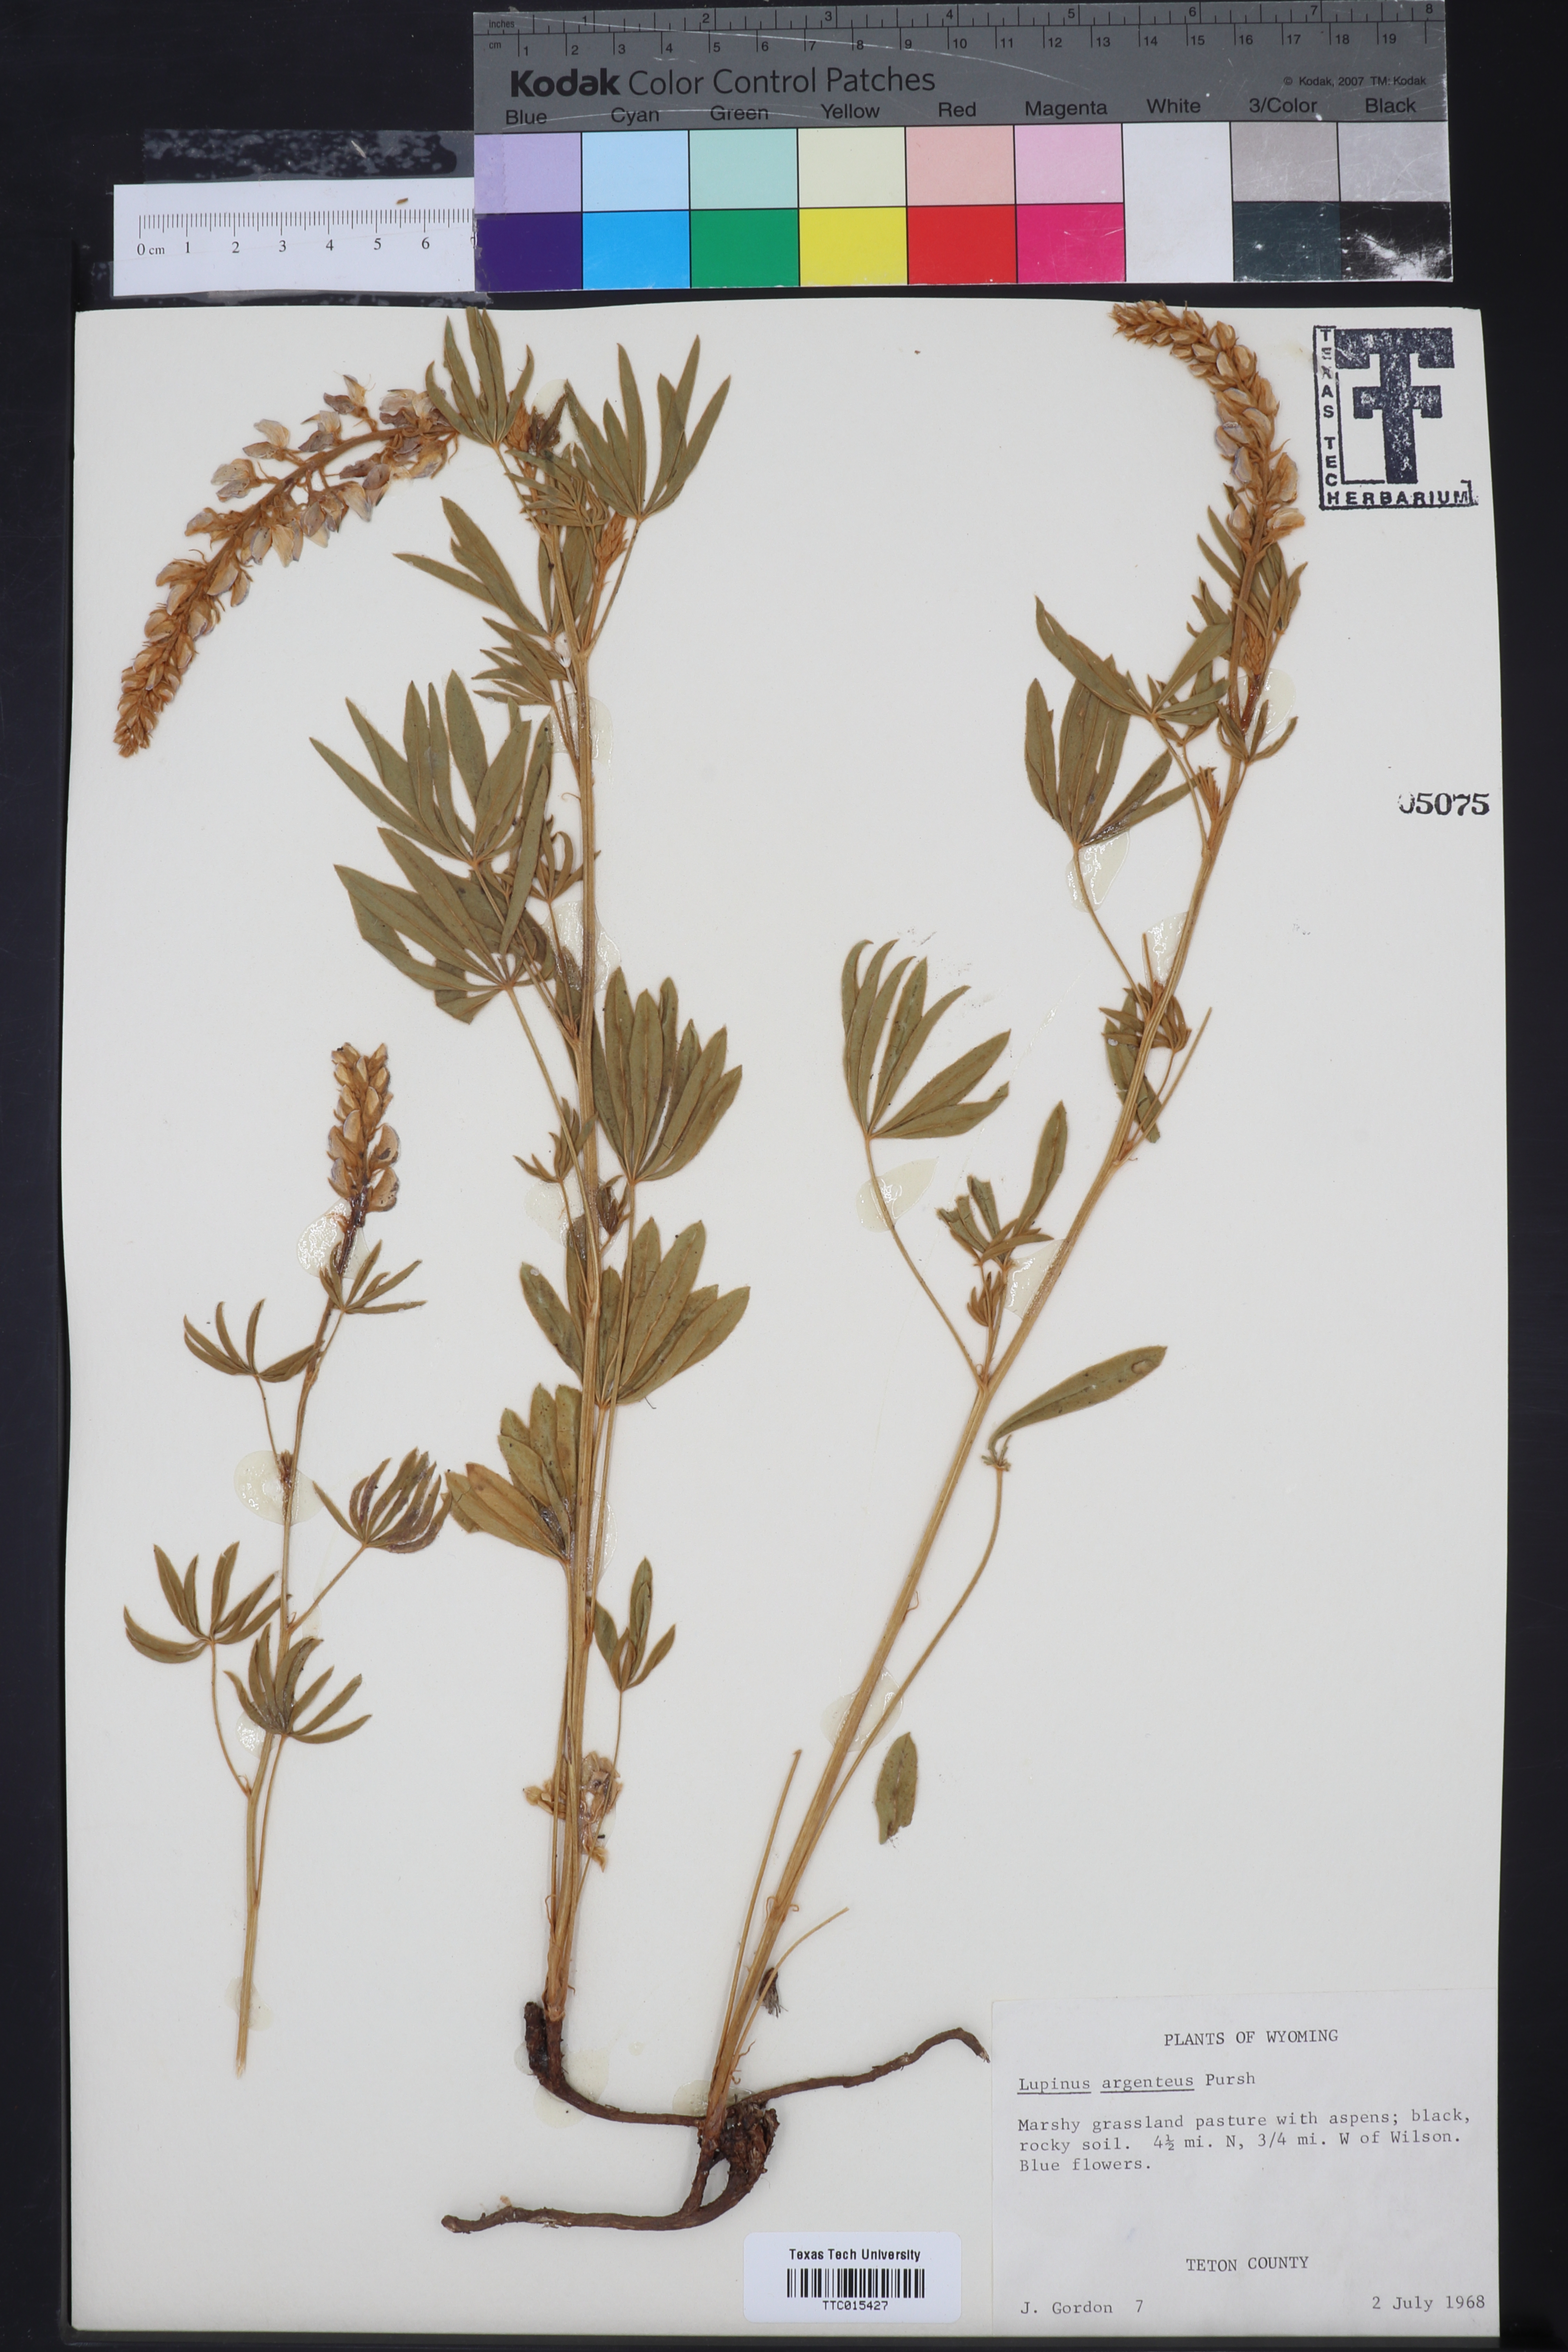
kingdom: Plantae
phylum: Tracheophyta
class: Magnoliopsida
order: Fabales
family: Fabaceae
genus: Lupinus
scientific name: Lupinus argenteus
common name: Silvery lupine
